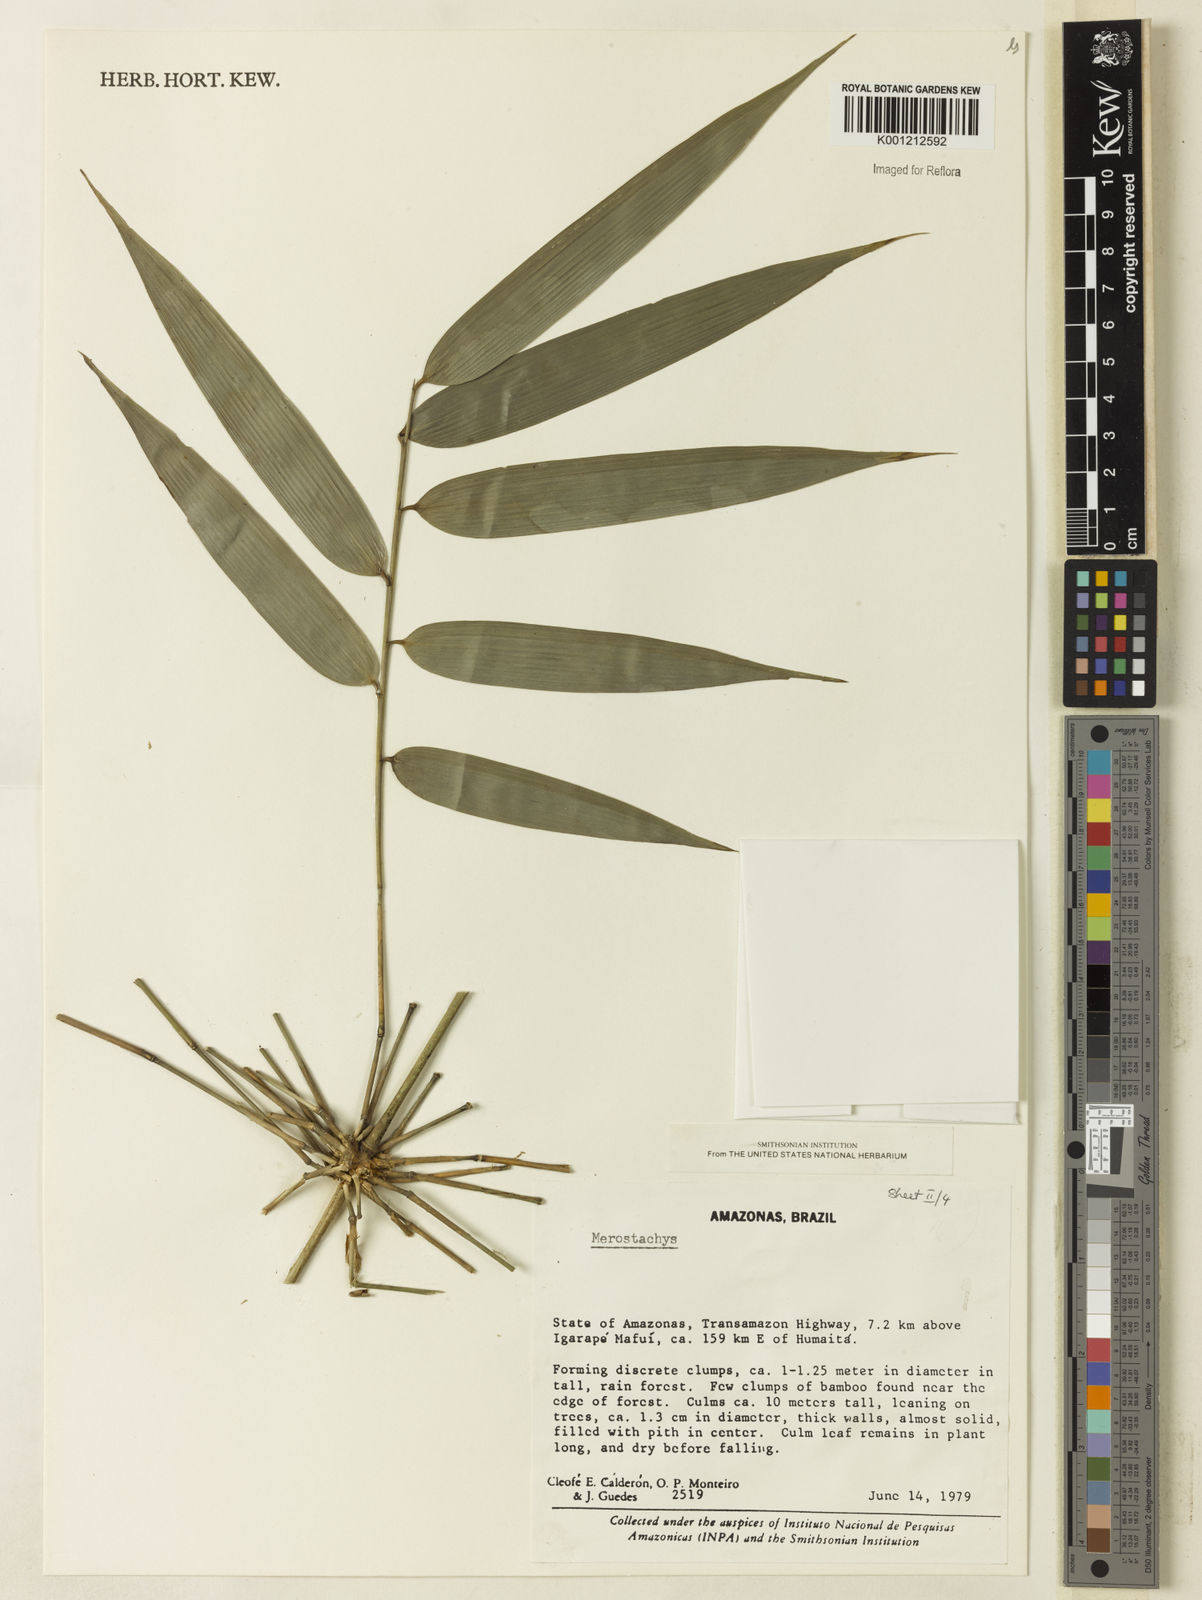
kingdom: Plantae
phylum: Tracheophyta
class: Liliopsida
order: Poales
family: Poaceae
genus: Merostachys
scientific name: Merostachys
